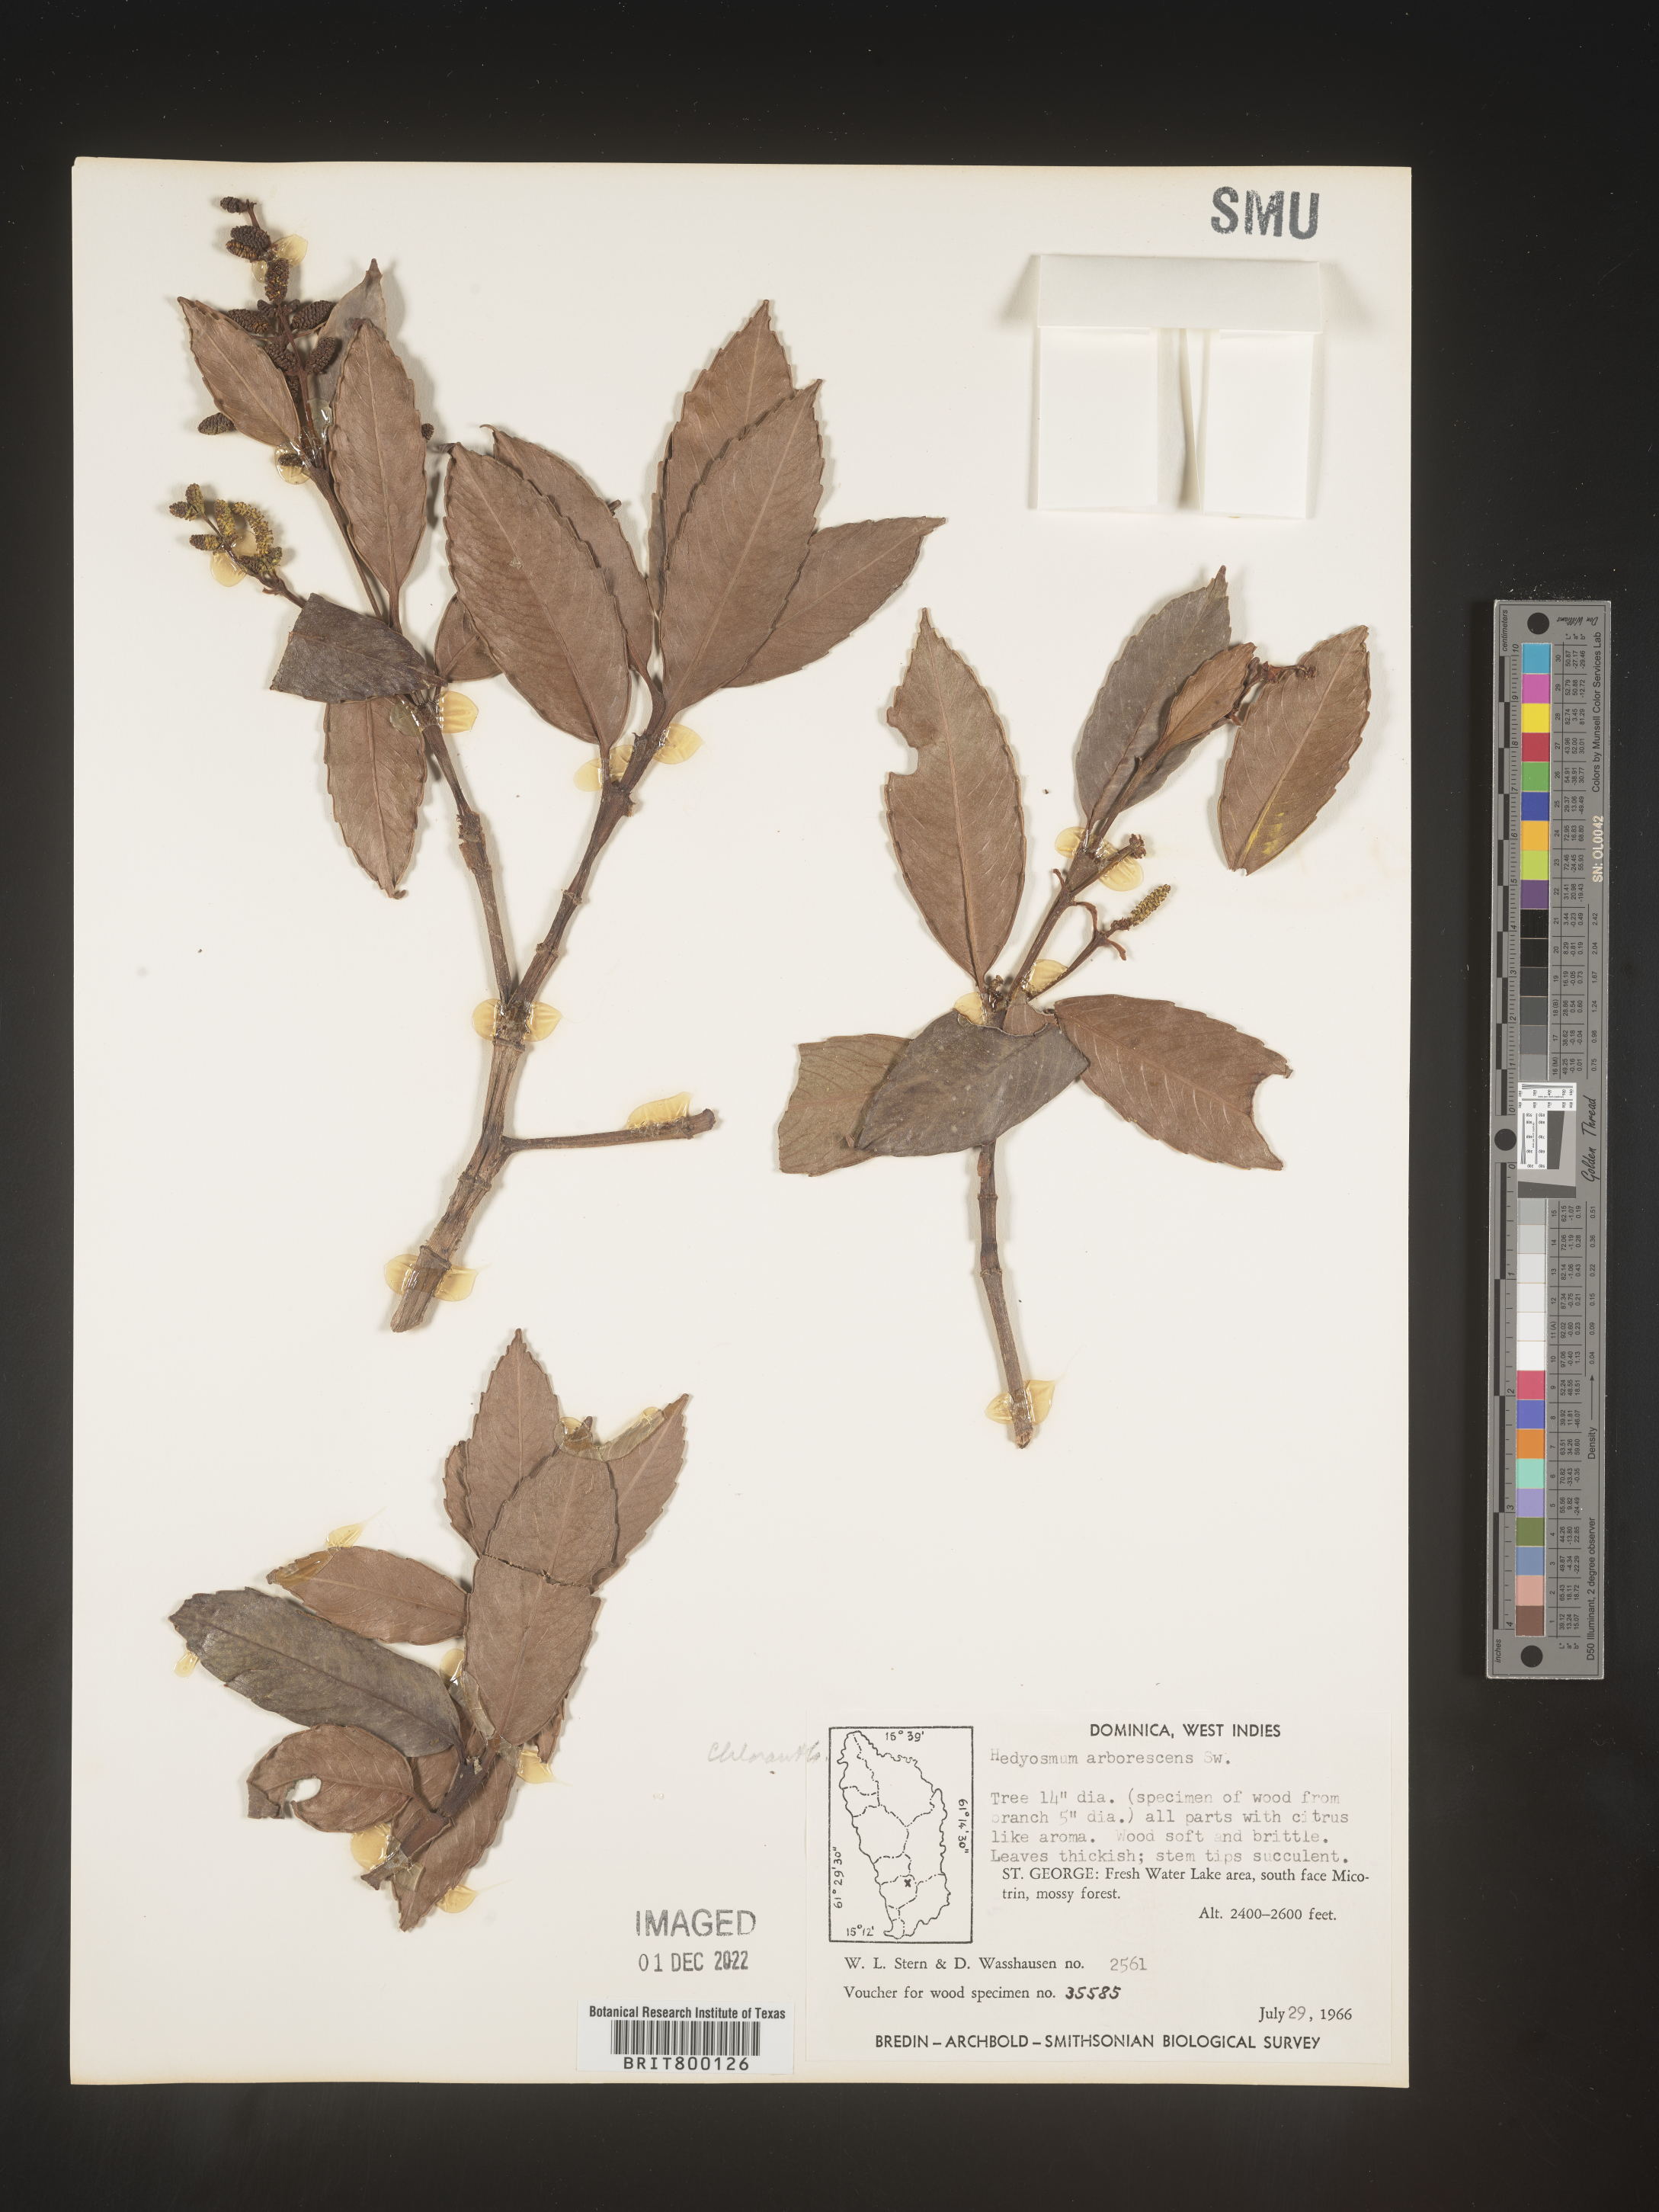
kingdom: Plantae
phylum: Tracheophyta
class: Magnoliopsida
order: Chloranthales
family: Chloranthaceae
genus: Hedyosmum
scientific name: Hedyosmum
